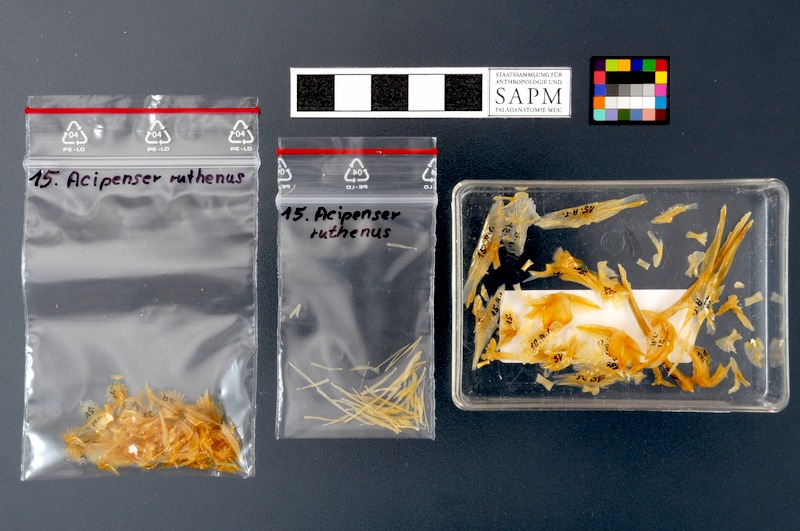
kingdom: Animalia
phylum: Chordata
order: Acipenseriformes
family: Acipenseridae
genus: Acipenser
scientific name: Acipenser ruthenus
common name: Sterlet
